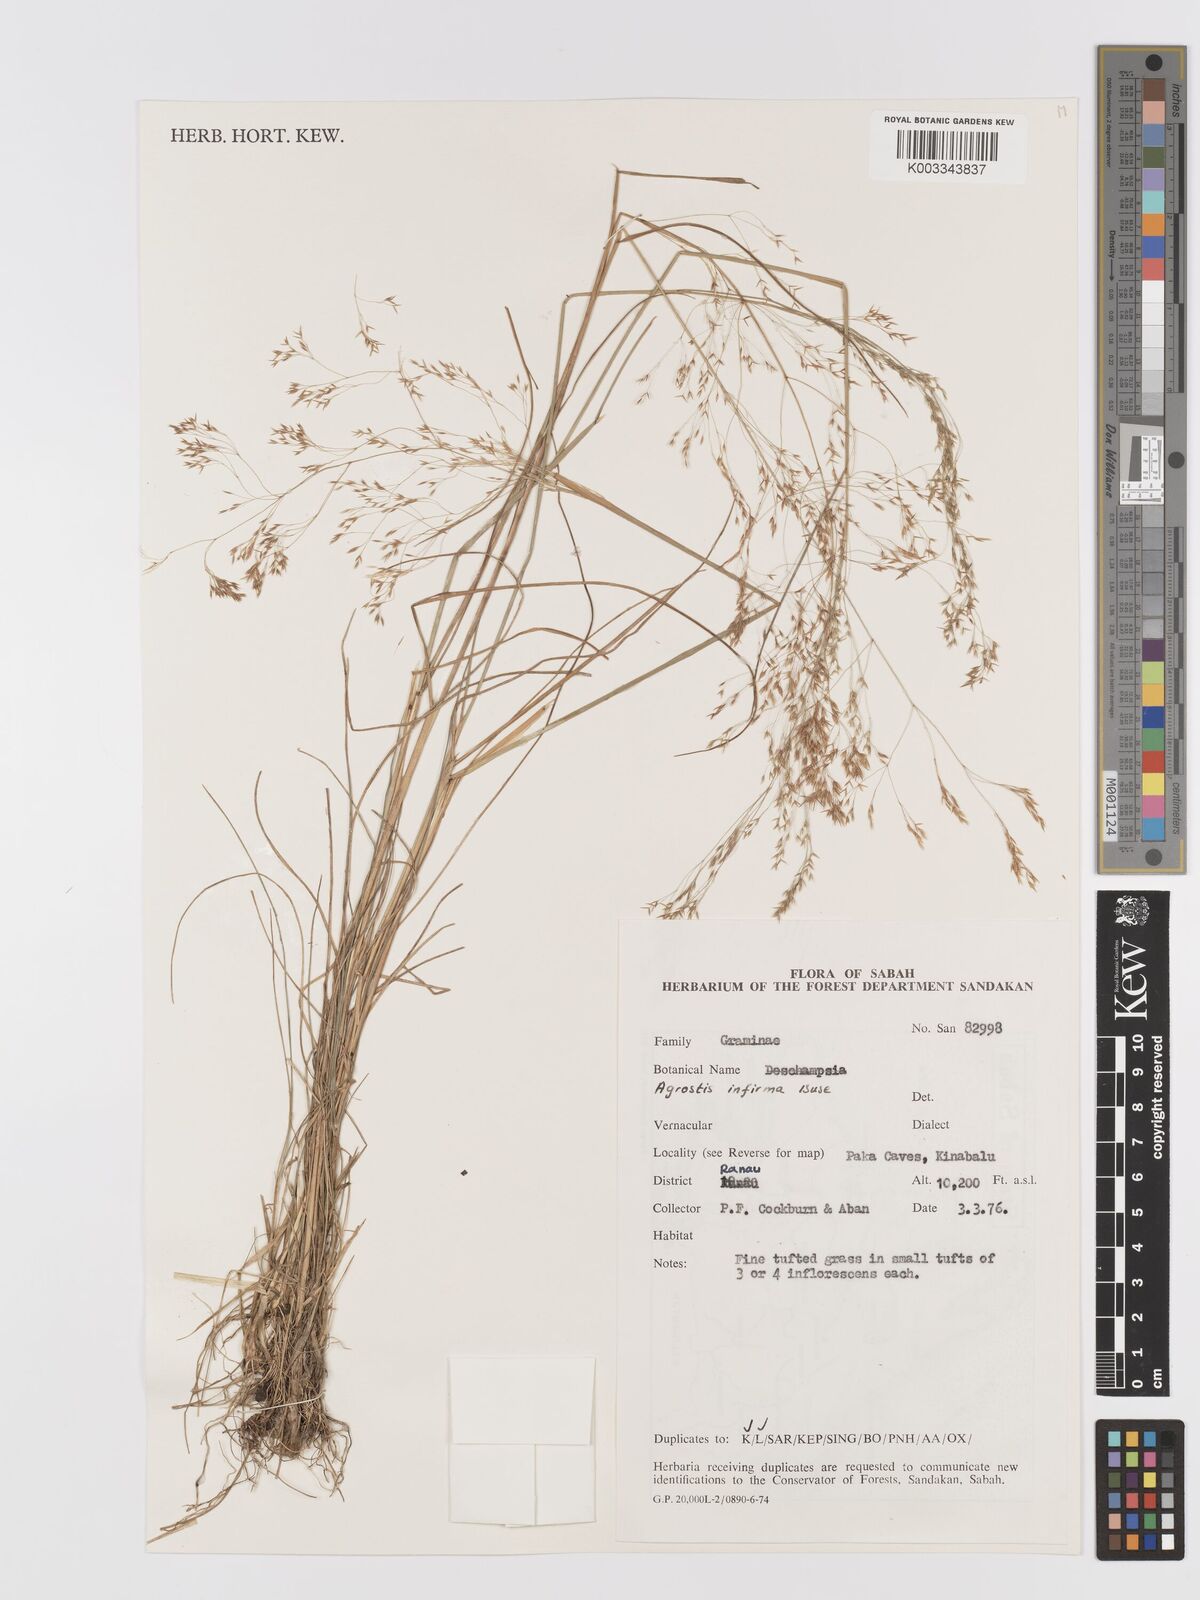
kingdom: Plantae
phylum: Tracheophyta
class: Liliopsida
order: Poales
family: Poaceae
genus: Agrostis
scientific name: Agrostis infirma
